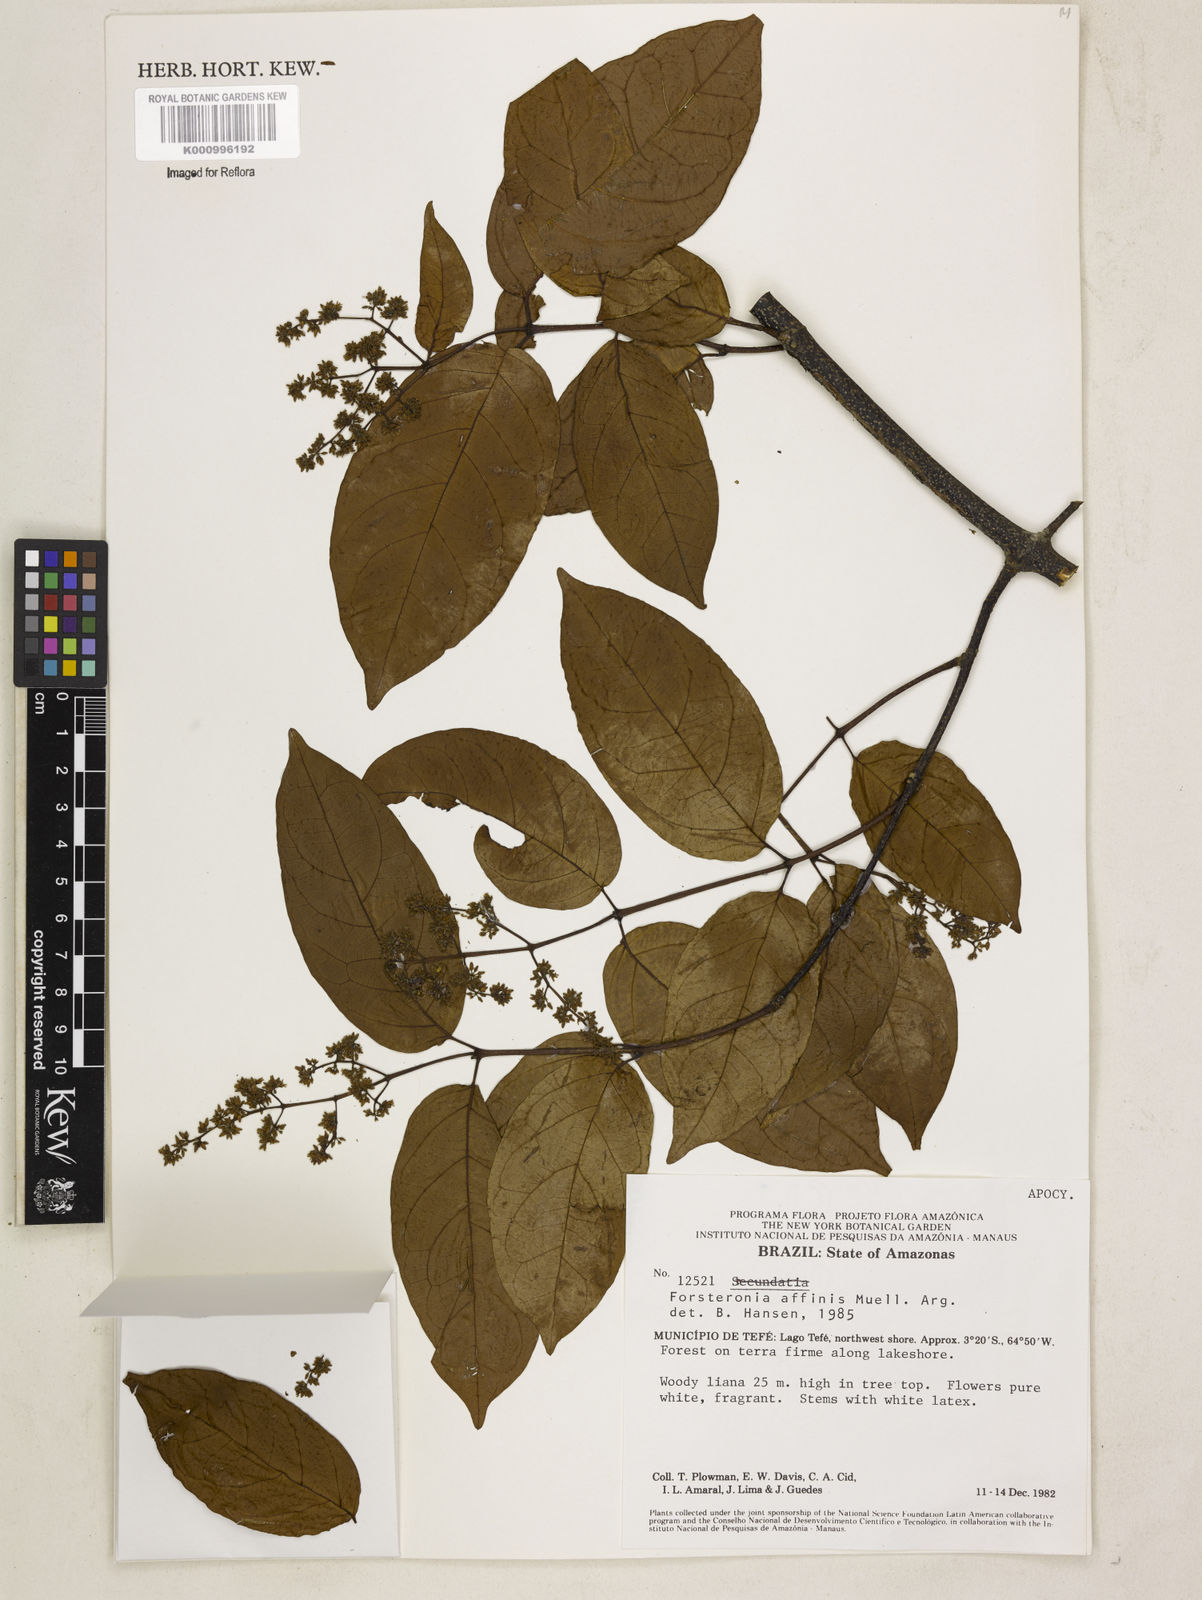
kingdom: Plantae
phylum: Tracheophyta
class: Magnoliopsida
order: Gentianales
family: Apocynaceae
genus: Forsteronia
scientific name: Forsteronia
